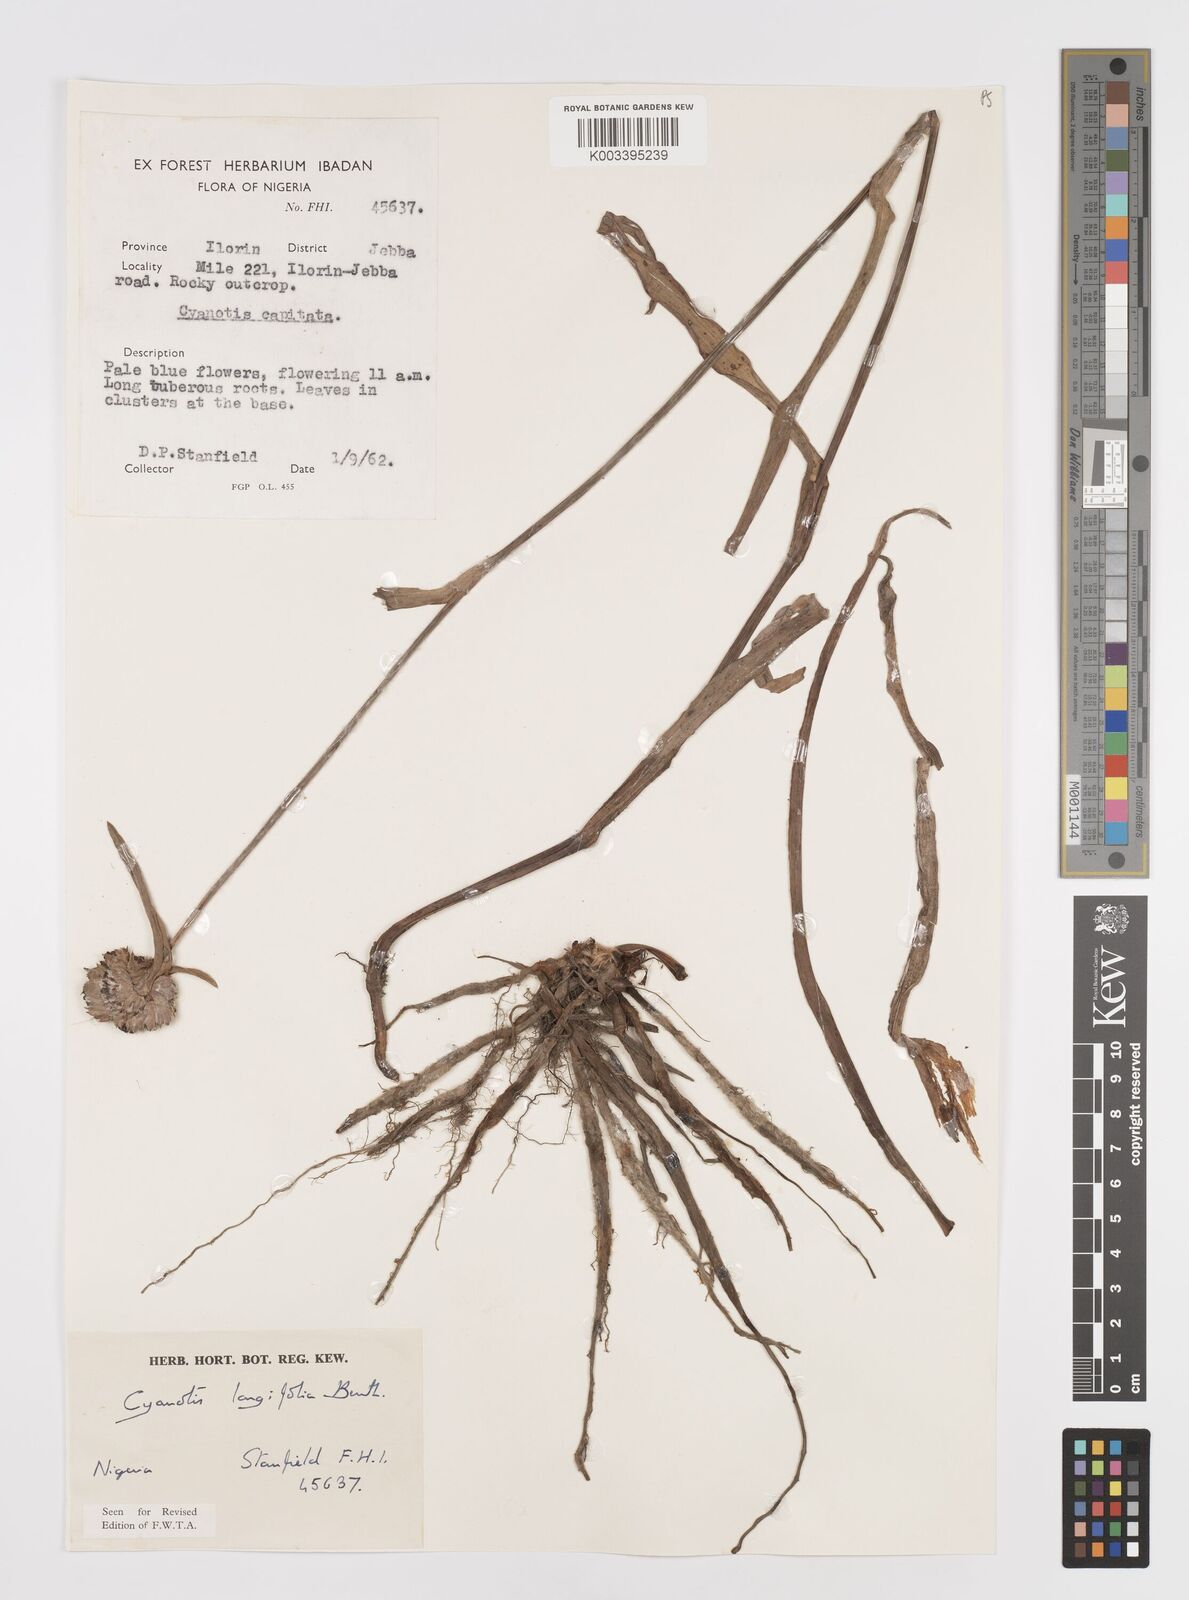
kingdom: Plantae
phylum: Tracheophyta
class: Liliopsida
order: Commelinales
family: Commelinaceae
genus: Cyanotis
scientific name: Cyanotis
